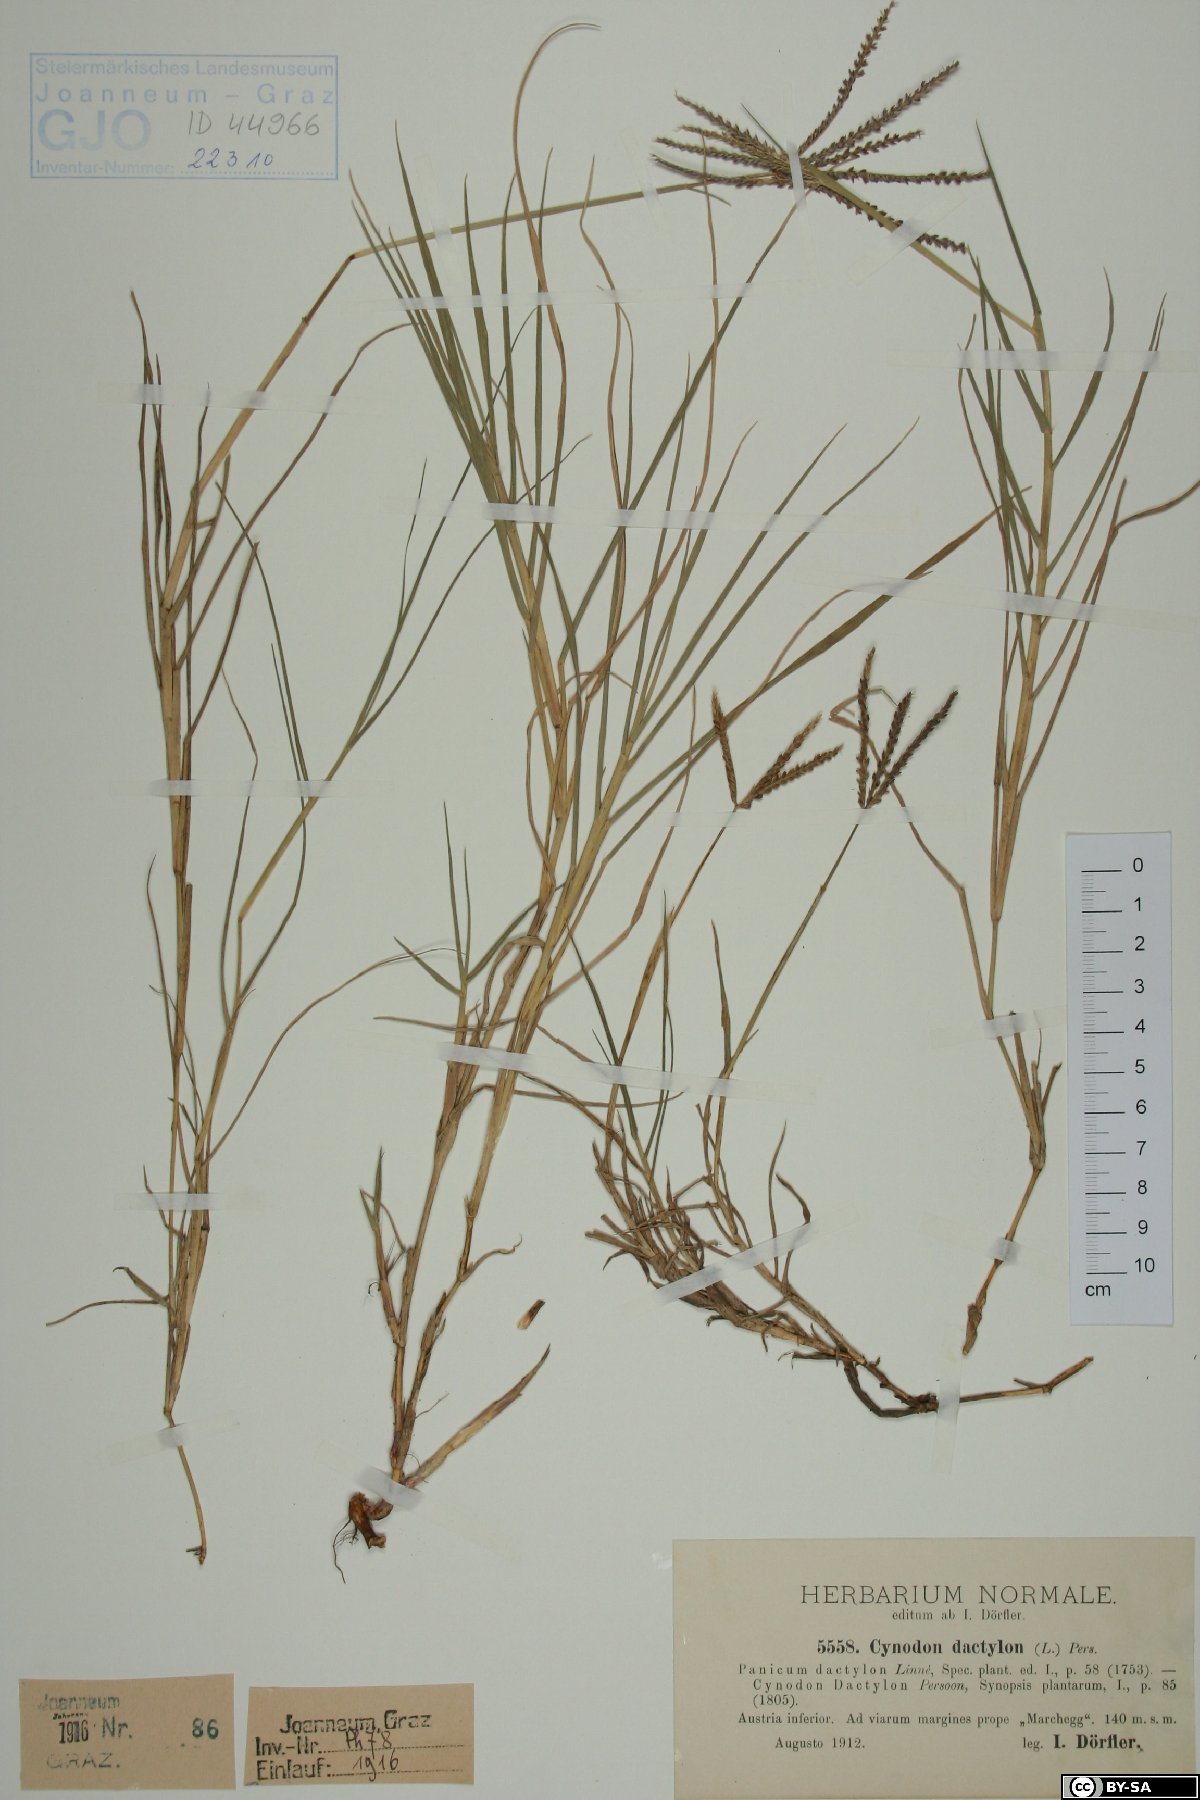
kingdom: Plantae
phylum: Tracheophyta
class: Liliopsida
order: Poales
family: Poaceae
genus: Cynodon
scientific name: Cynodon dactylon
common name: Bermuda grass
